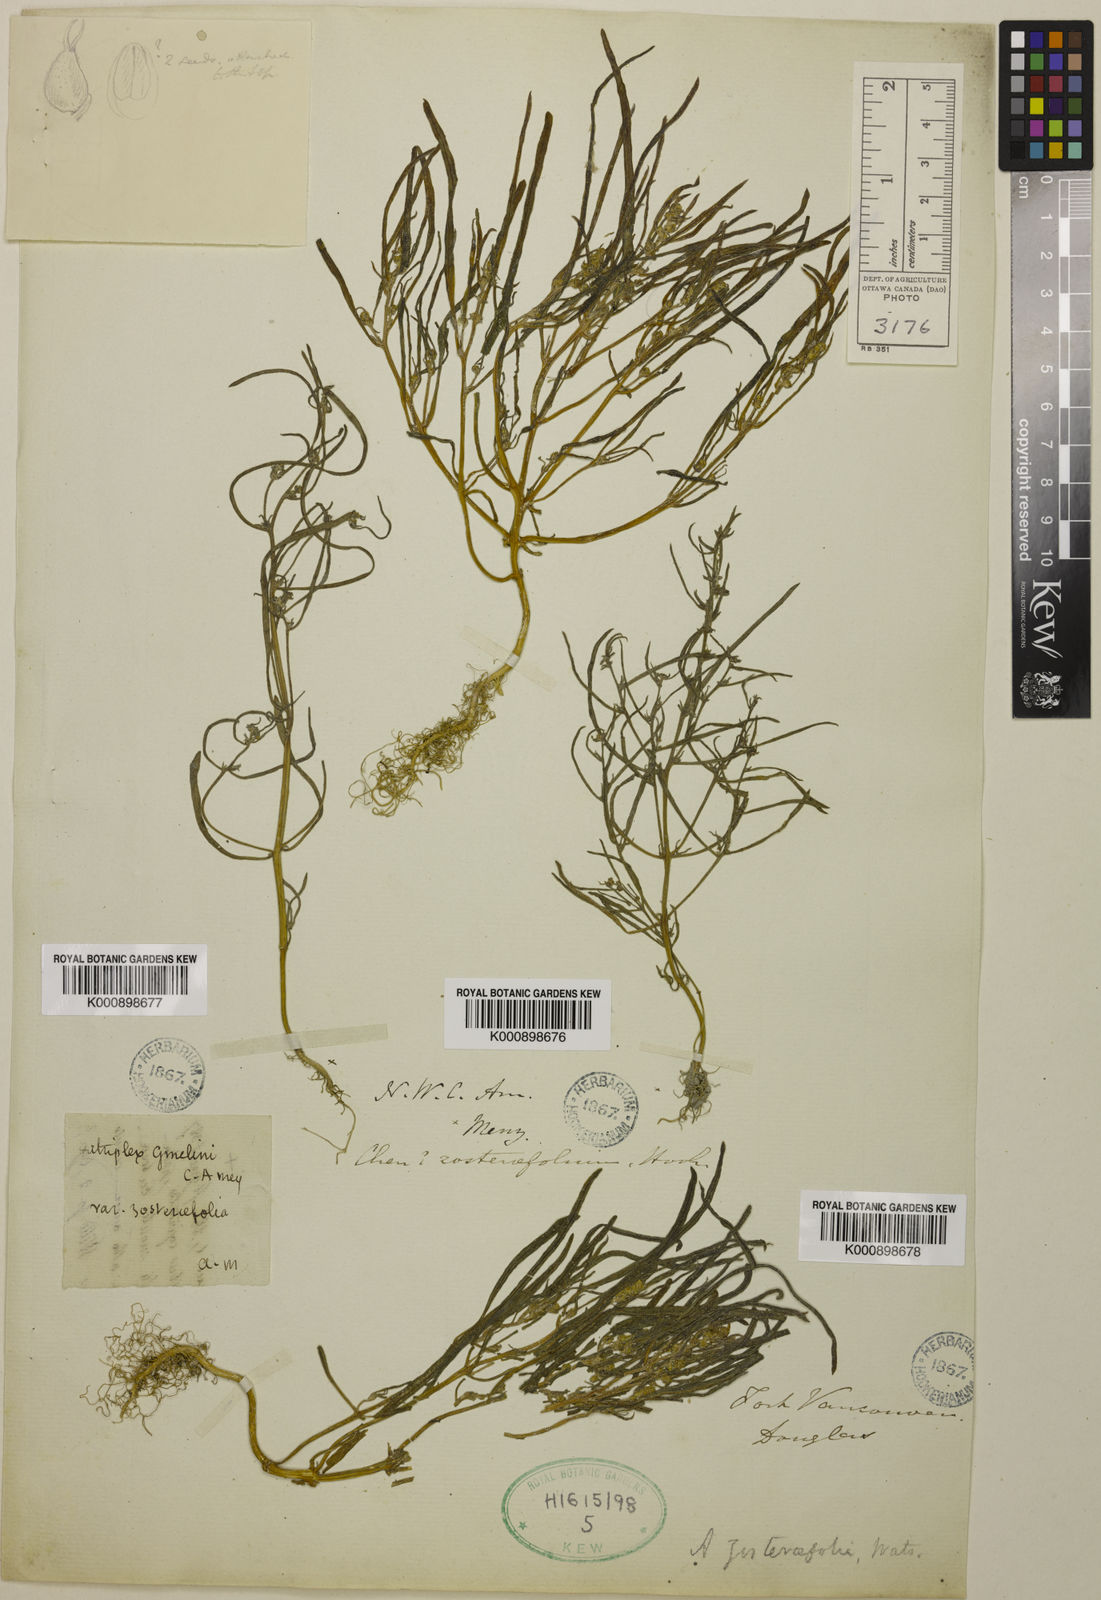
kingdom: Plantae
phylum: Tracheophyta
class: Magnoliopsida
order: Caryophyllales
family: Amaranthaceae
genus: Atriplex
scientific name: Atriplex gmelinii
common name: Gmelin's orach
